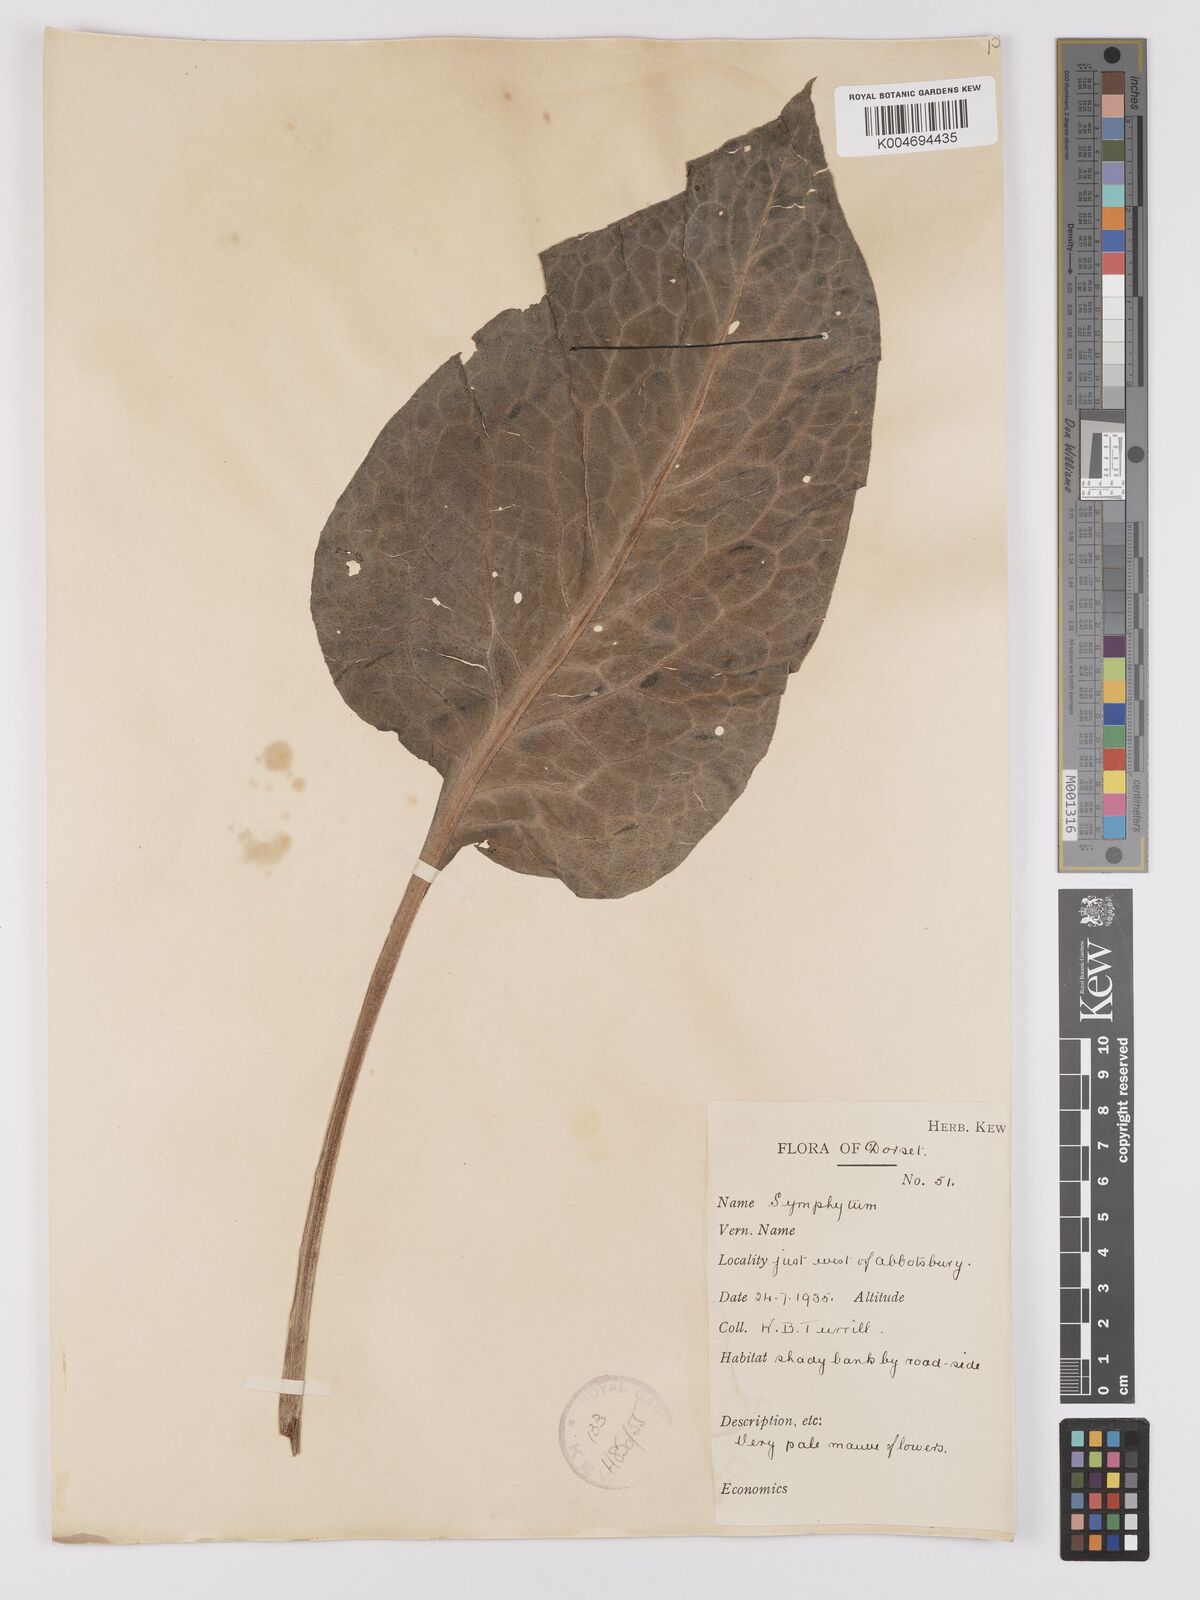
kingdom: Plantae
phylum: Tracheophyta
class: Magnoliopsida
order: Boraginales
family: Boraginaceae
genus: Symphytum
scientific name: Symphytum officinale
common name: Common comfrey
